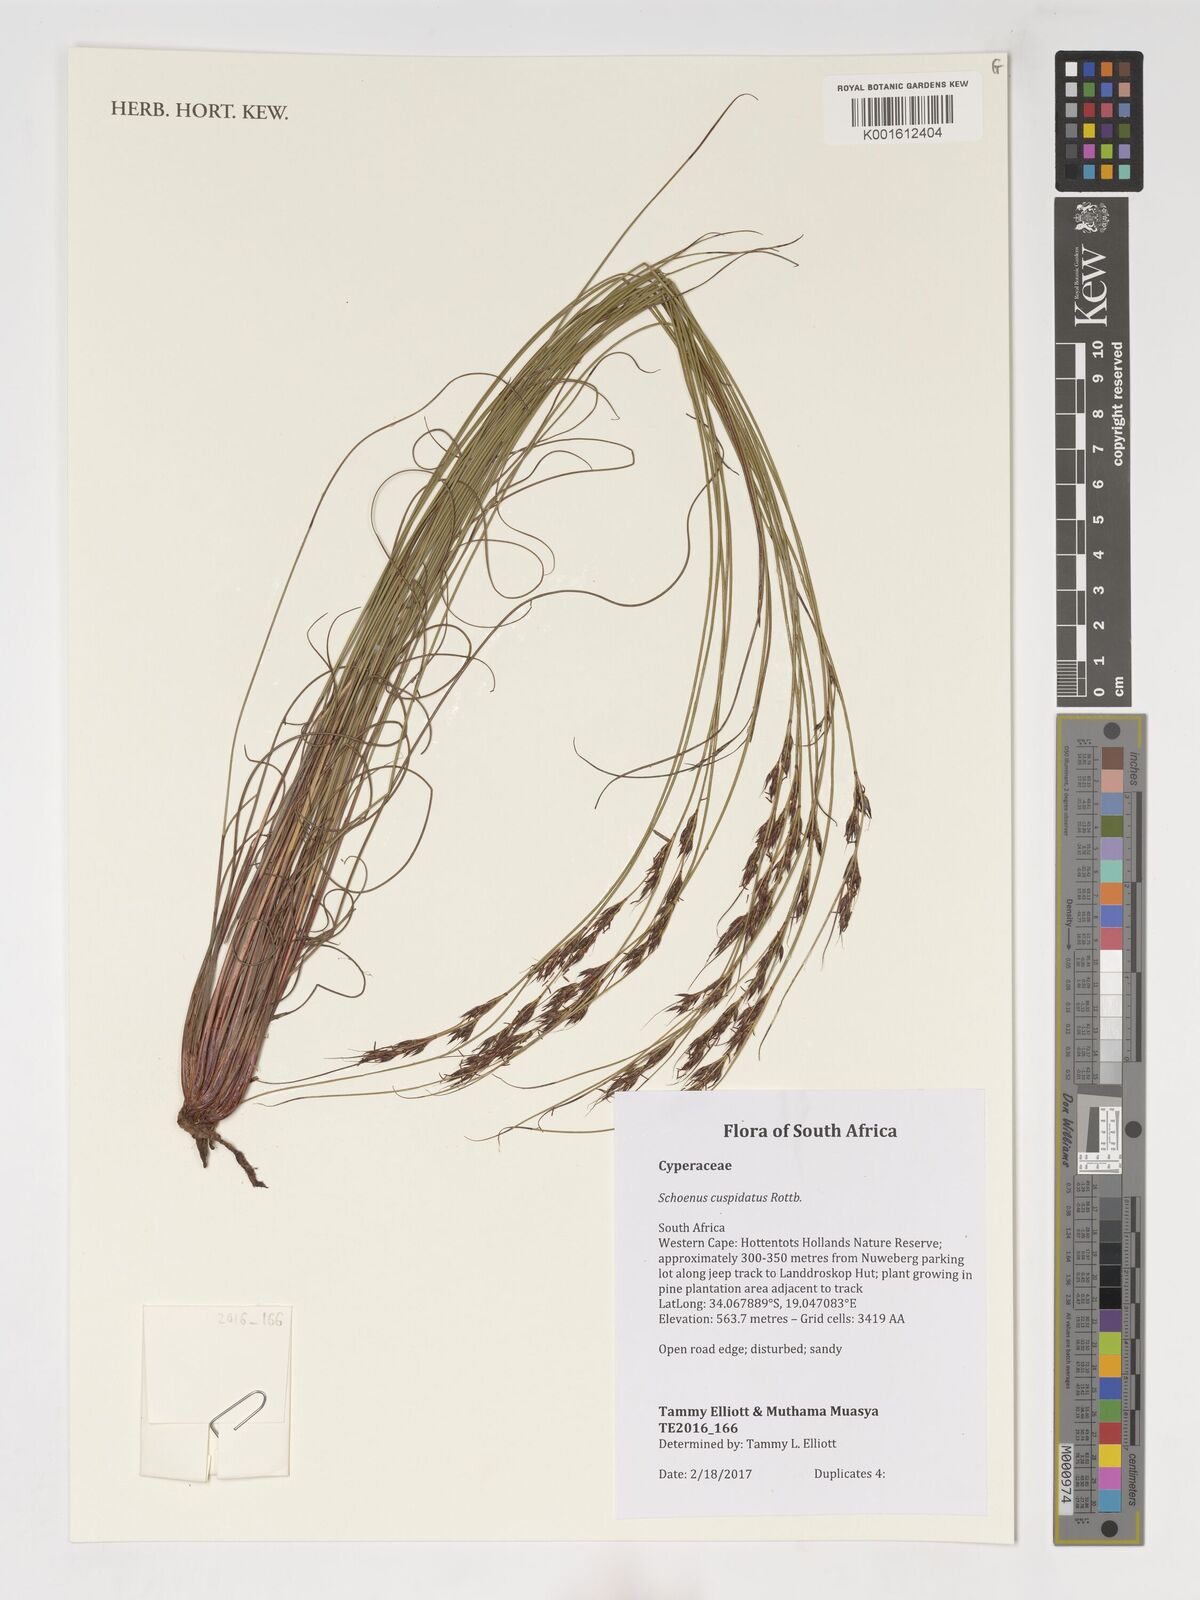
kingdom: Plantae
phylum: Tracheophyta
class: Liliopsida
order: Poales
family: Cyperaceae
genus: Schoenus
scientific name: Schoenus cuspidatus
